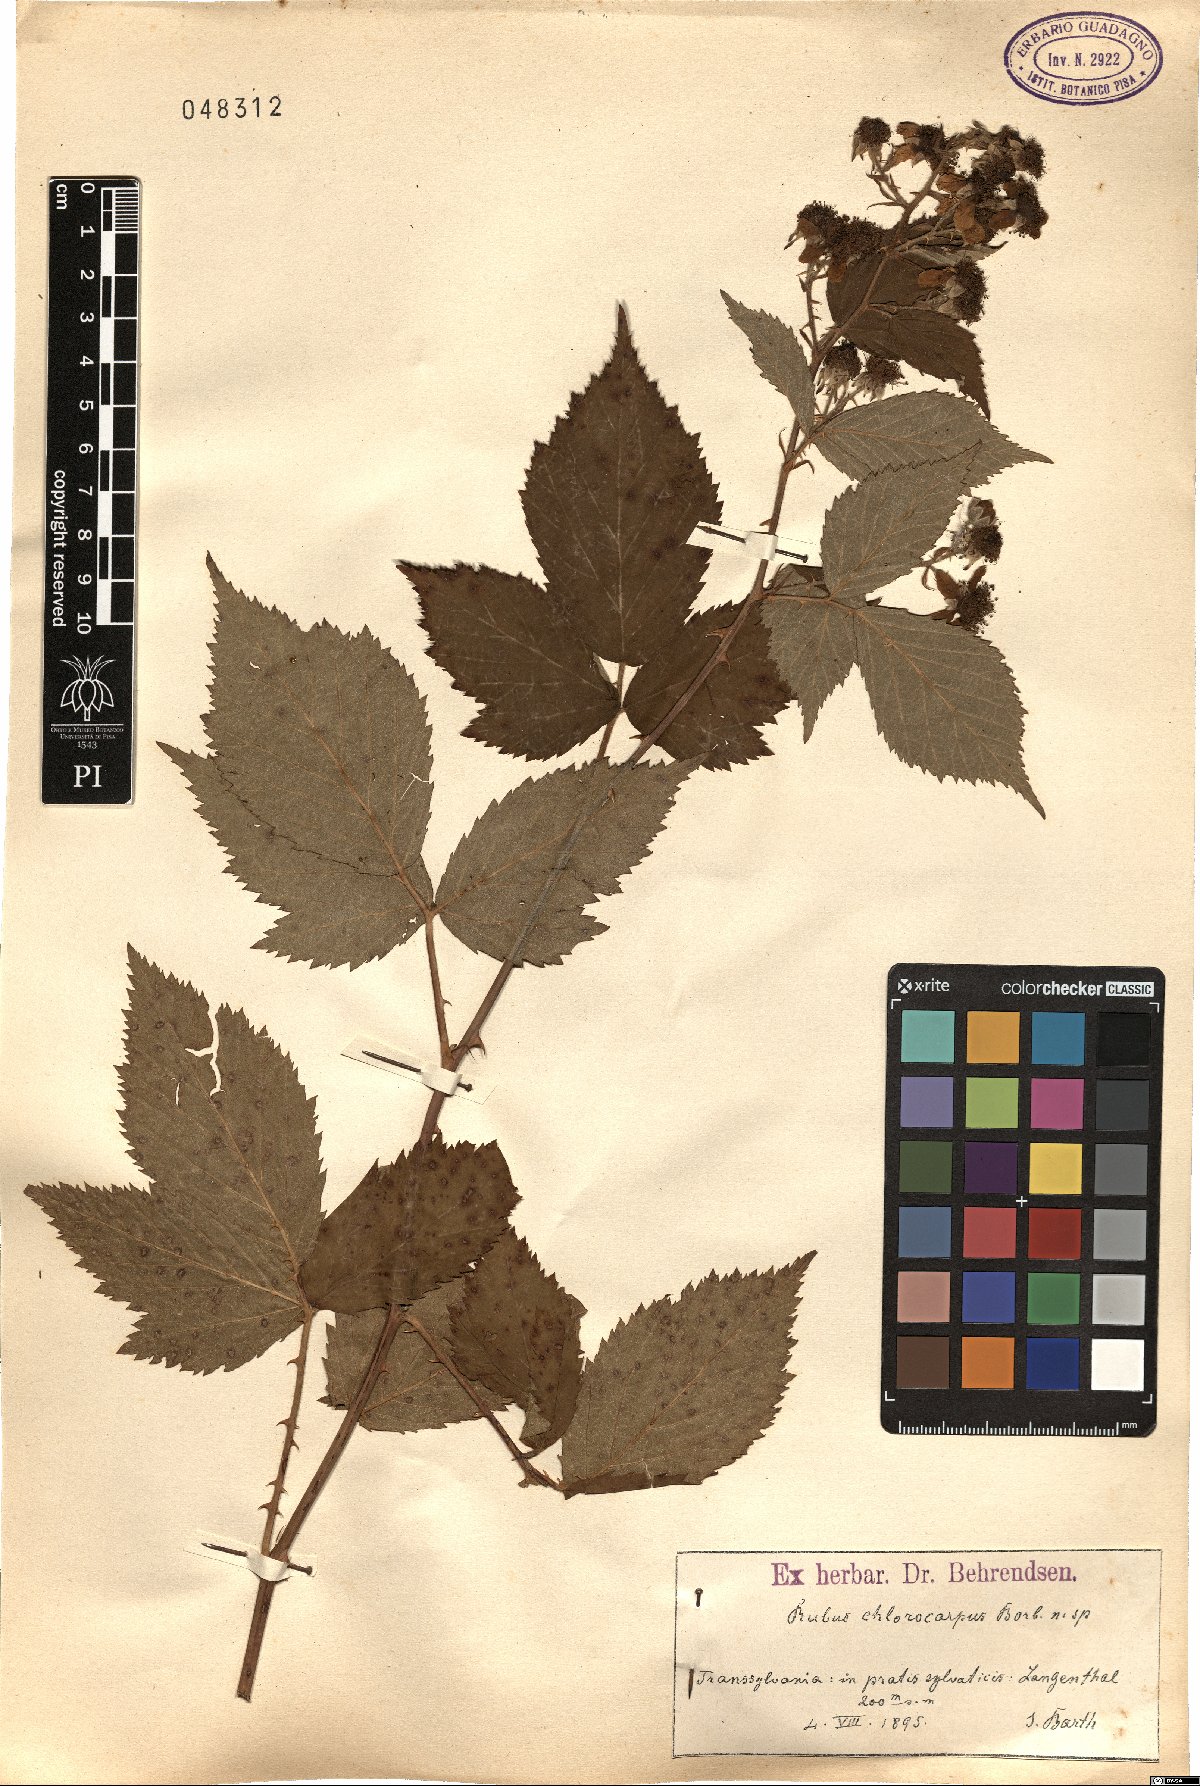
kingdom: Plantae
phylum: Tracheophyta
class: Magnoliopsida
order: Rosales
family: Rosaceae
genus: Rubus
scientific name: Rubus ulmifolius
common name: Elmleaf blackberry
